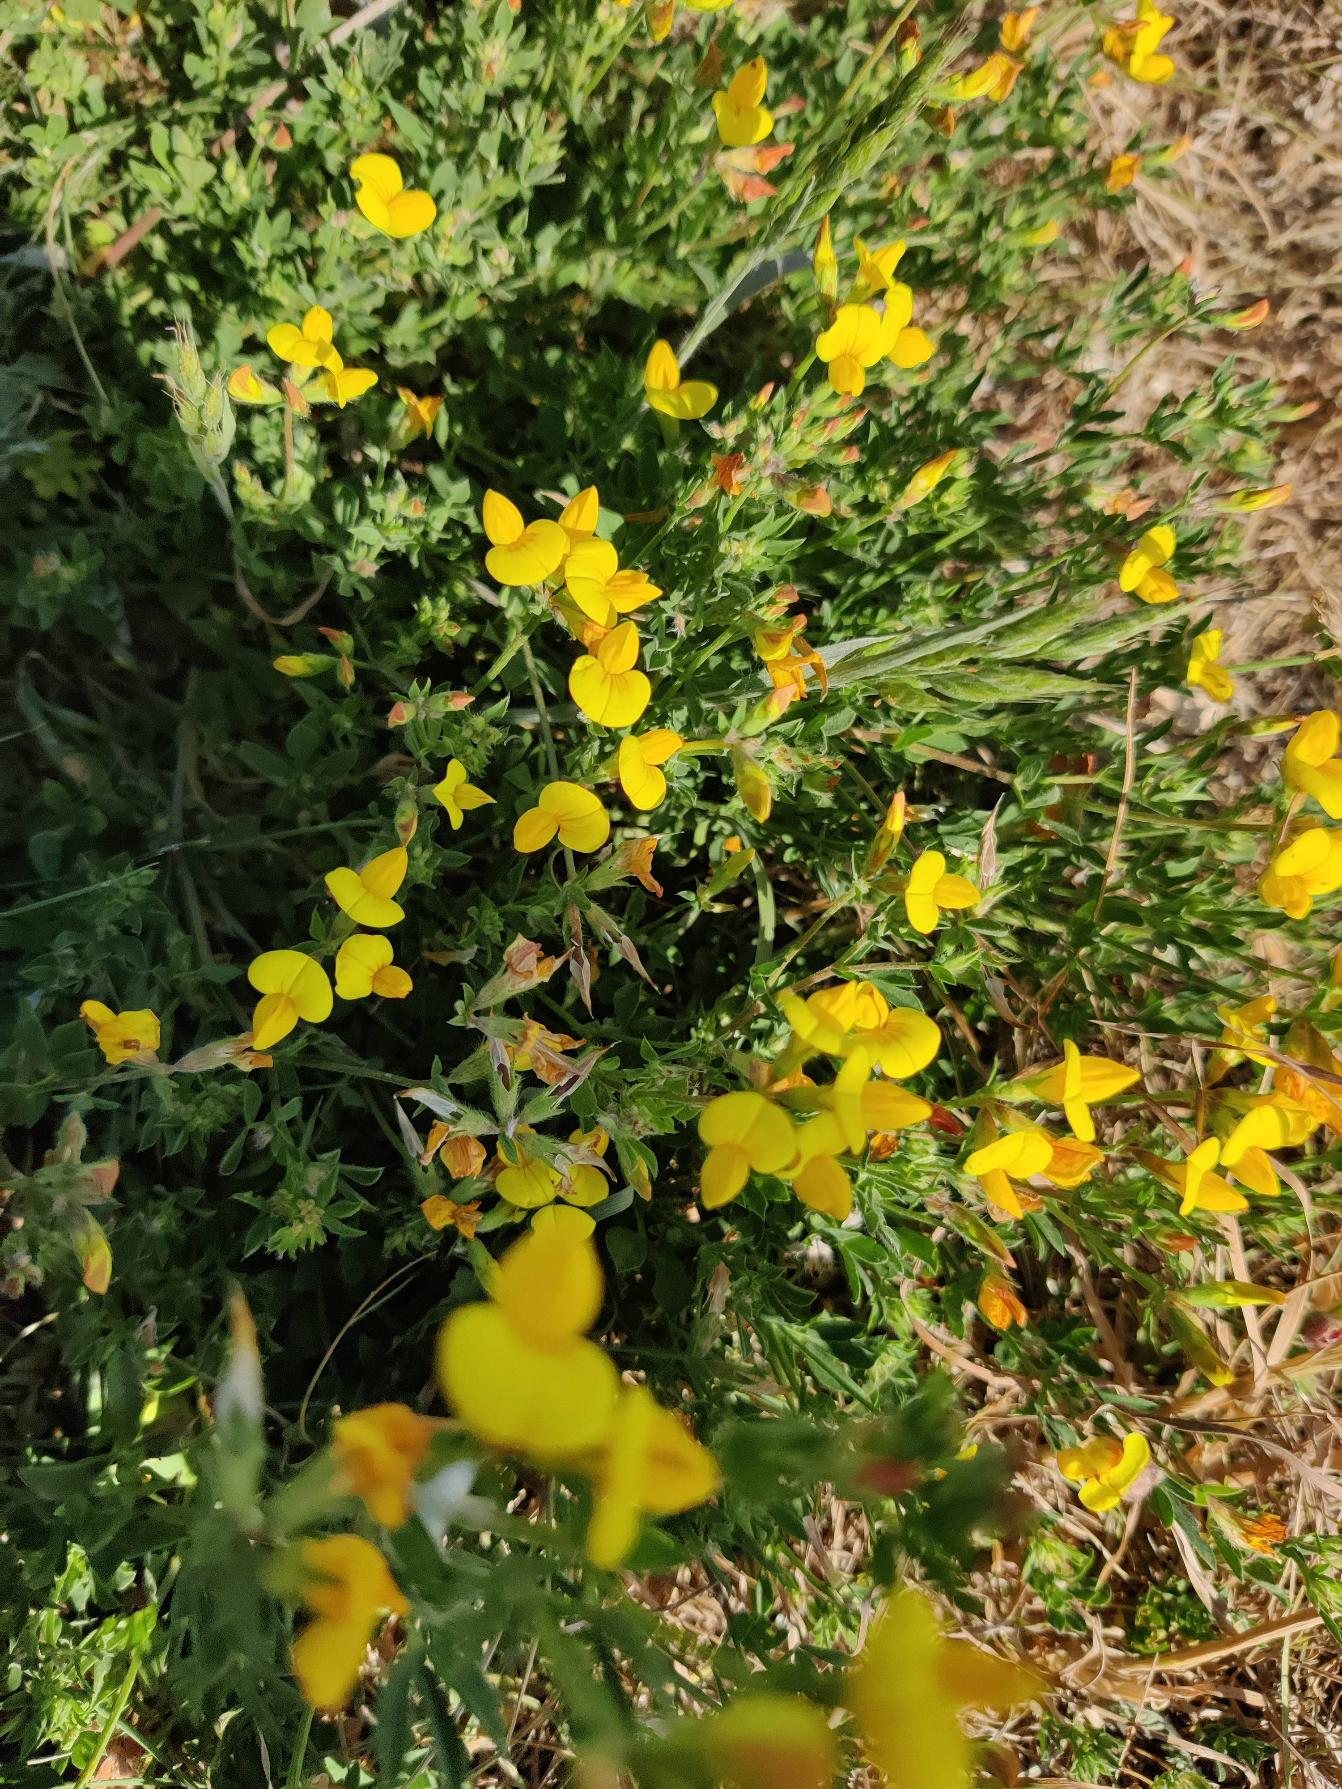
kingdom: Plantae
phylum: Tracheophyta
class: Magnoliopsida
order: Fabales
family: Fabaceae
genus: Lotus
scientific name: Lotus corniculatus
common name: Almindelig kællingetand
